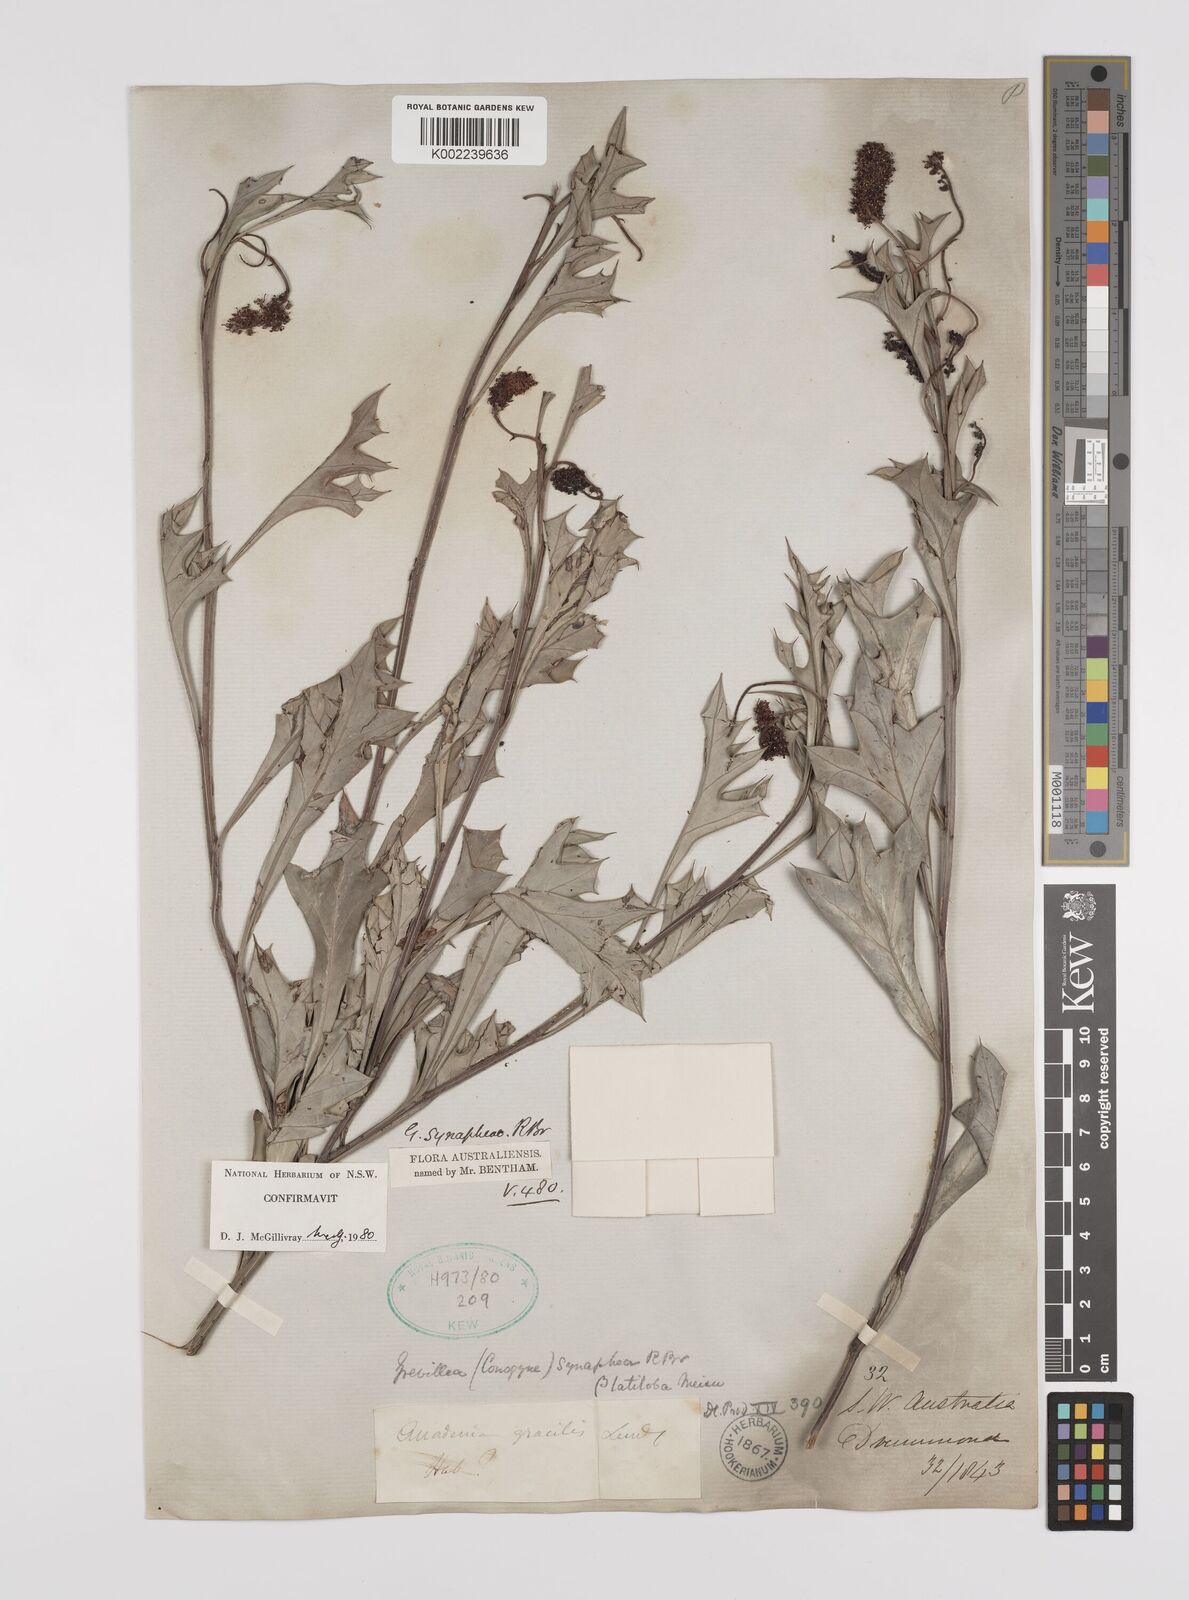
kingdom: Plantae
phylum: Tracheophyta
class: Magnoliopsida
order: Proteales
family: Proteaceae
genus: Grevillea
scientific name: Grevillea synaphea
